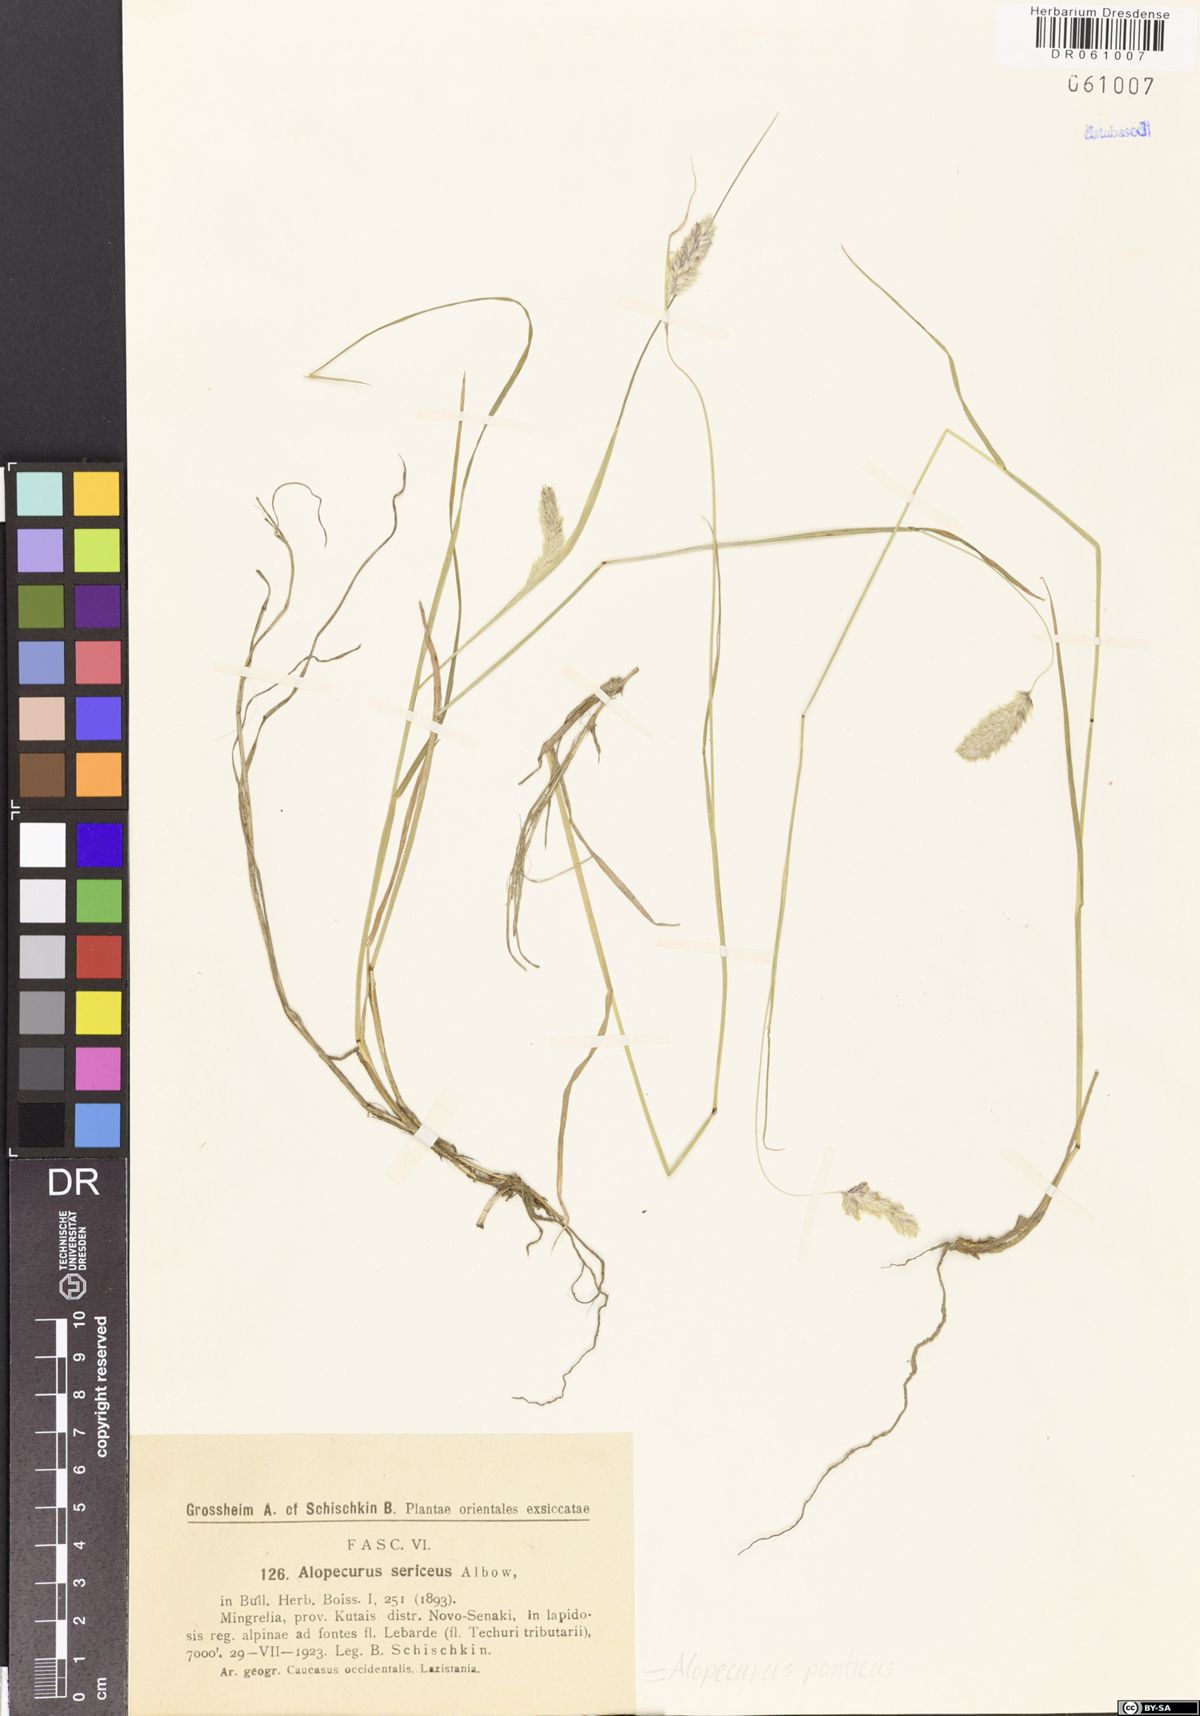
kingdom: Plantae
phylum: Tracheophyta
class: Liliopsida
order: Poales
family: Poaceae
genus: Alopecurus
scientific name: Alopecurus ponticus
